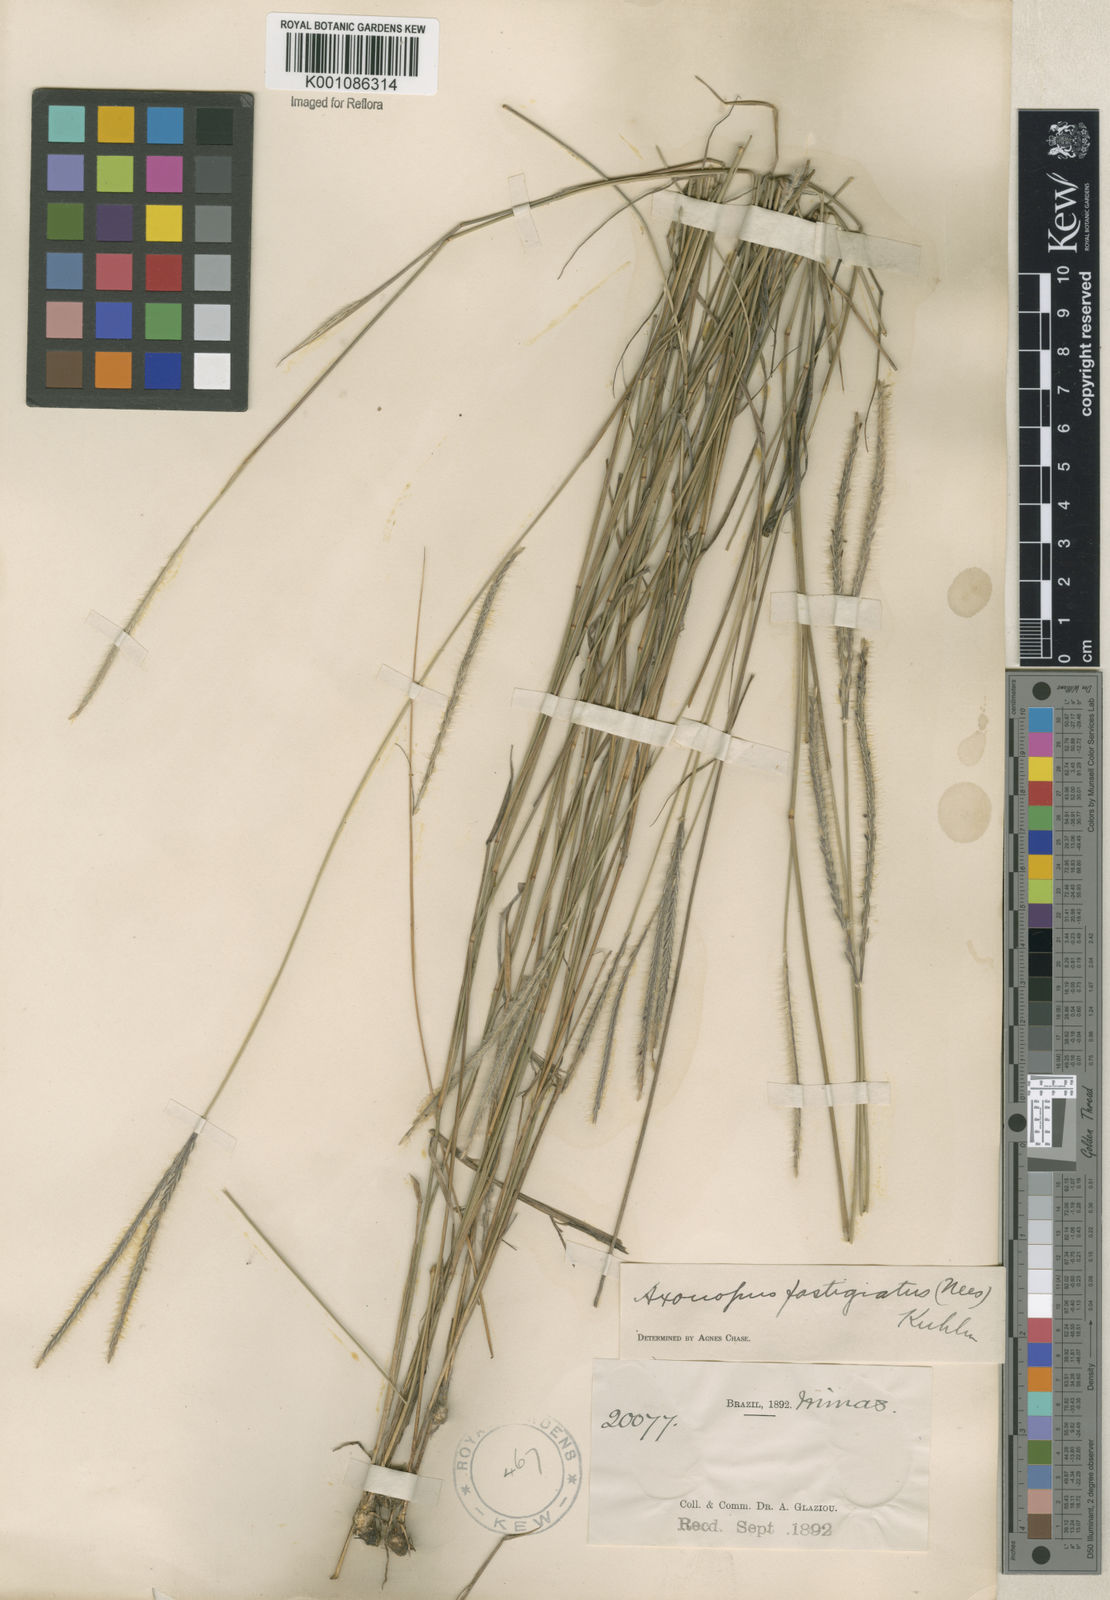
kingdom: Plantae
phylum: Tracheophyta
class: Liliopsida
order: Poales
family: Poaceae
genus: Axonopus
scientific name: Axonopus fastigiatus
